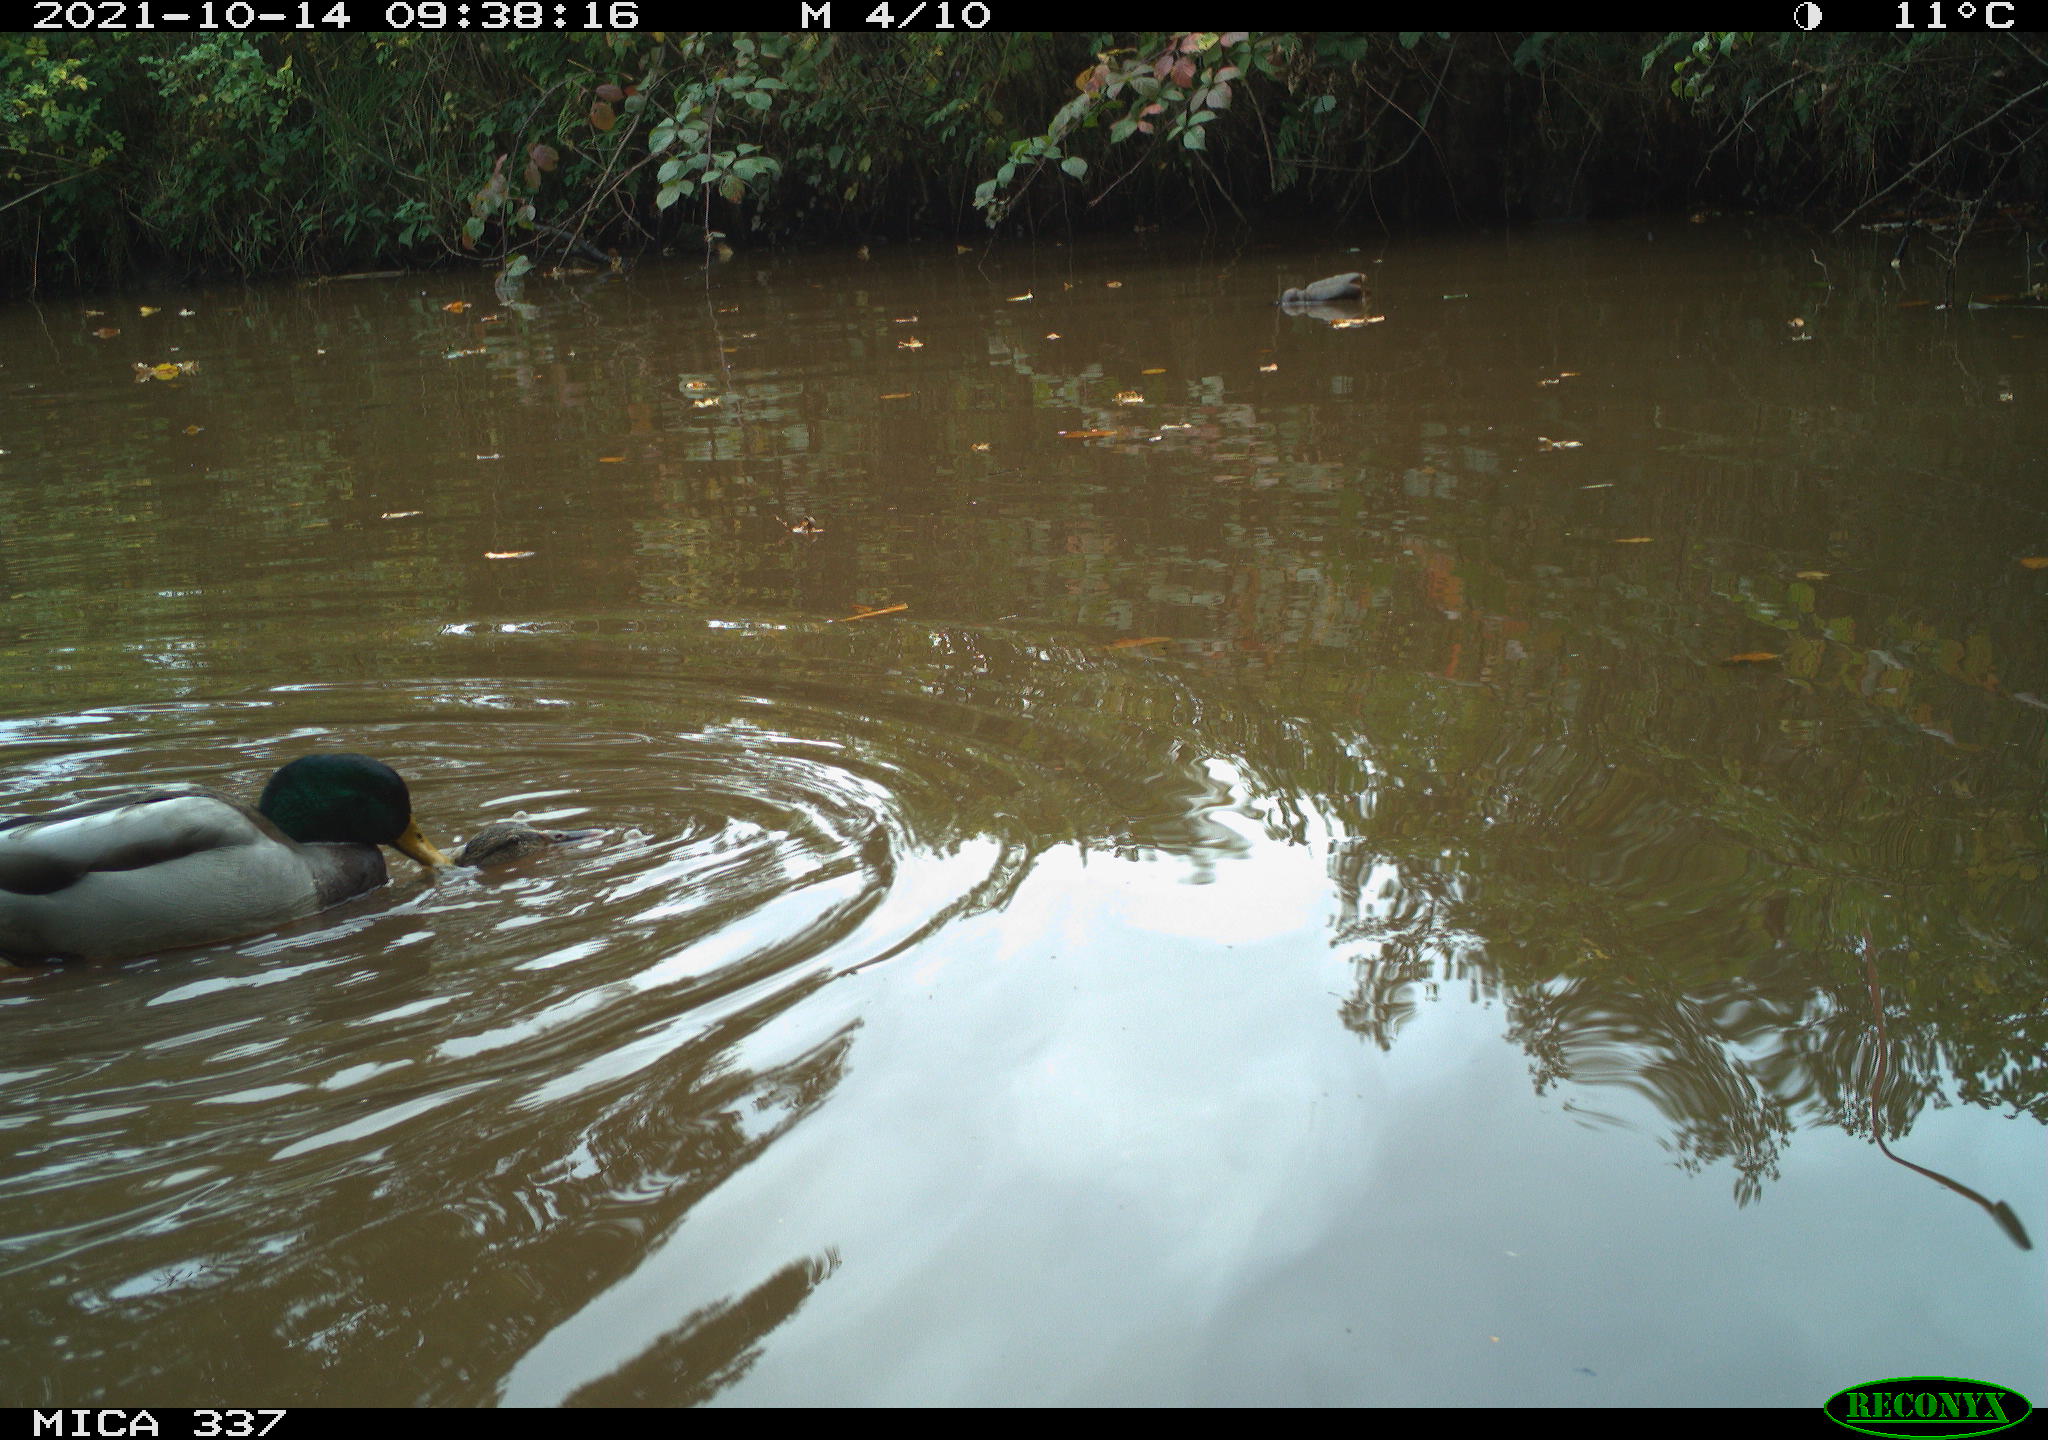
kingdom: Animalia
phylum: Chordata
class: Aves
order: Anseriformes
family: Anatidae
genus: Anas
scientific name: Anas platyrhynchos
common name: Mallard
